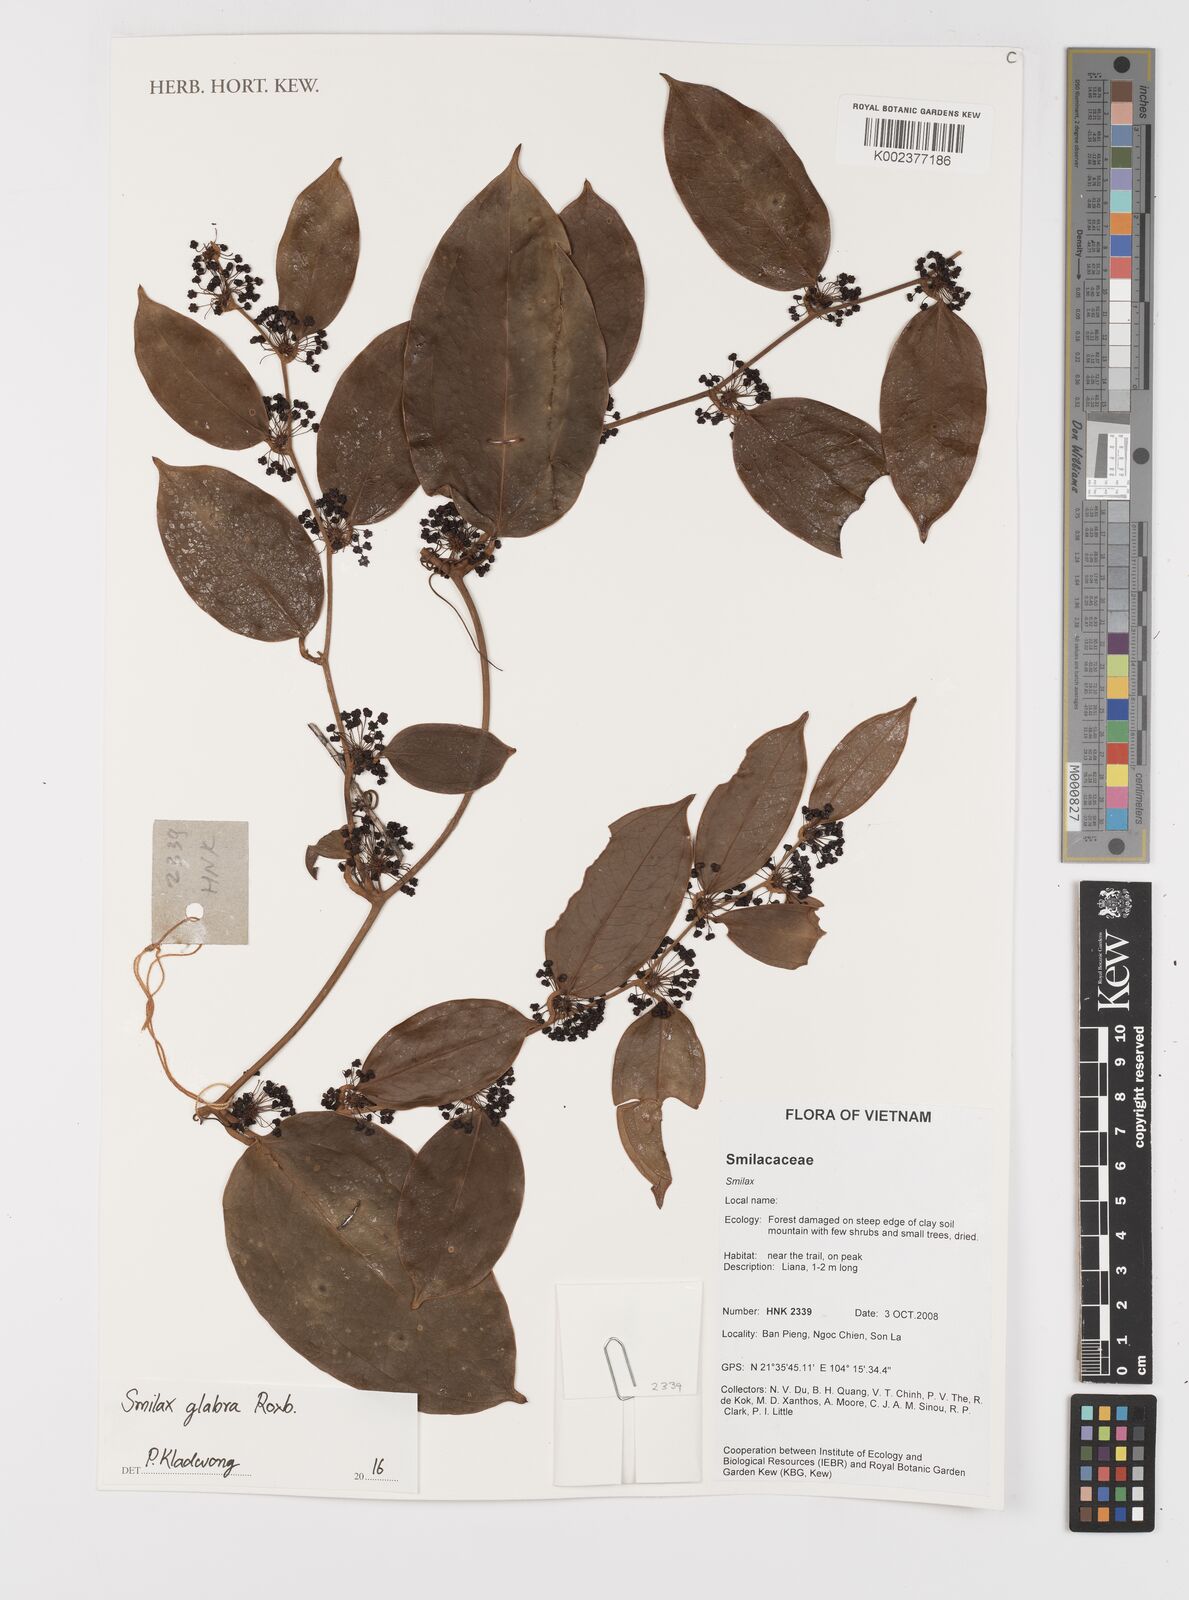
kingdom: Plantae
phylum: Tracheophyta
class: Liliopsida
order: Liliales
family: Smilacaceae
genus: Smilax
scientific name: Smilax glabra
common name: Chinese smilax
